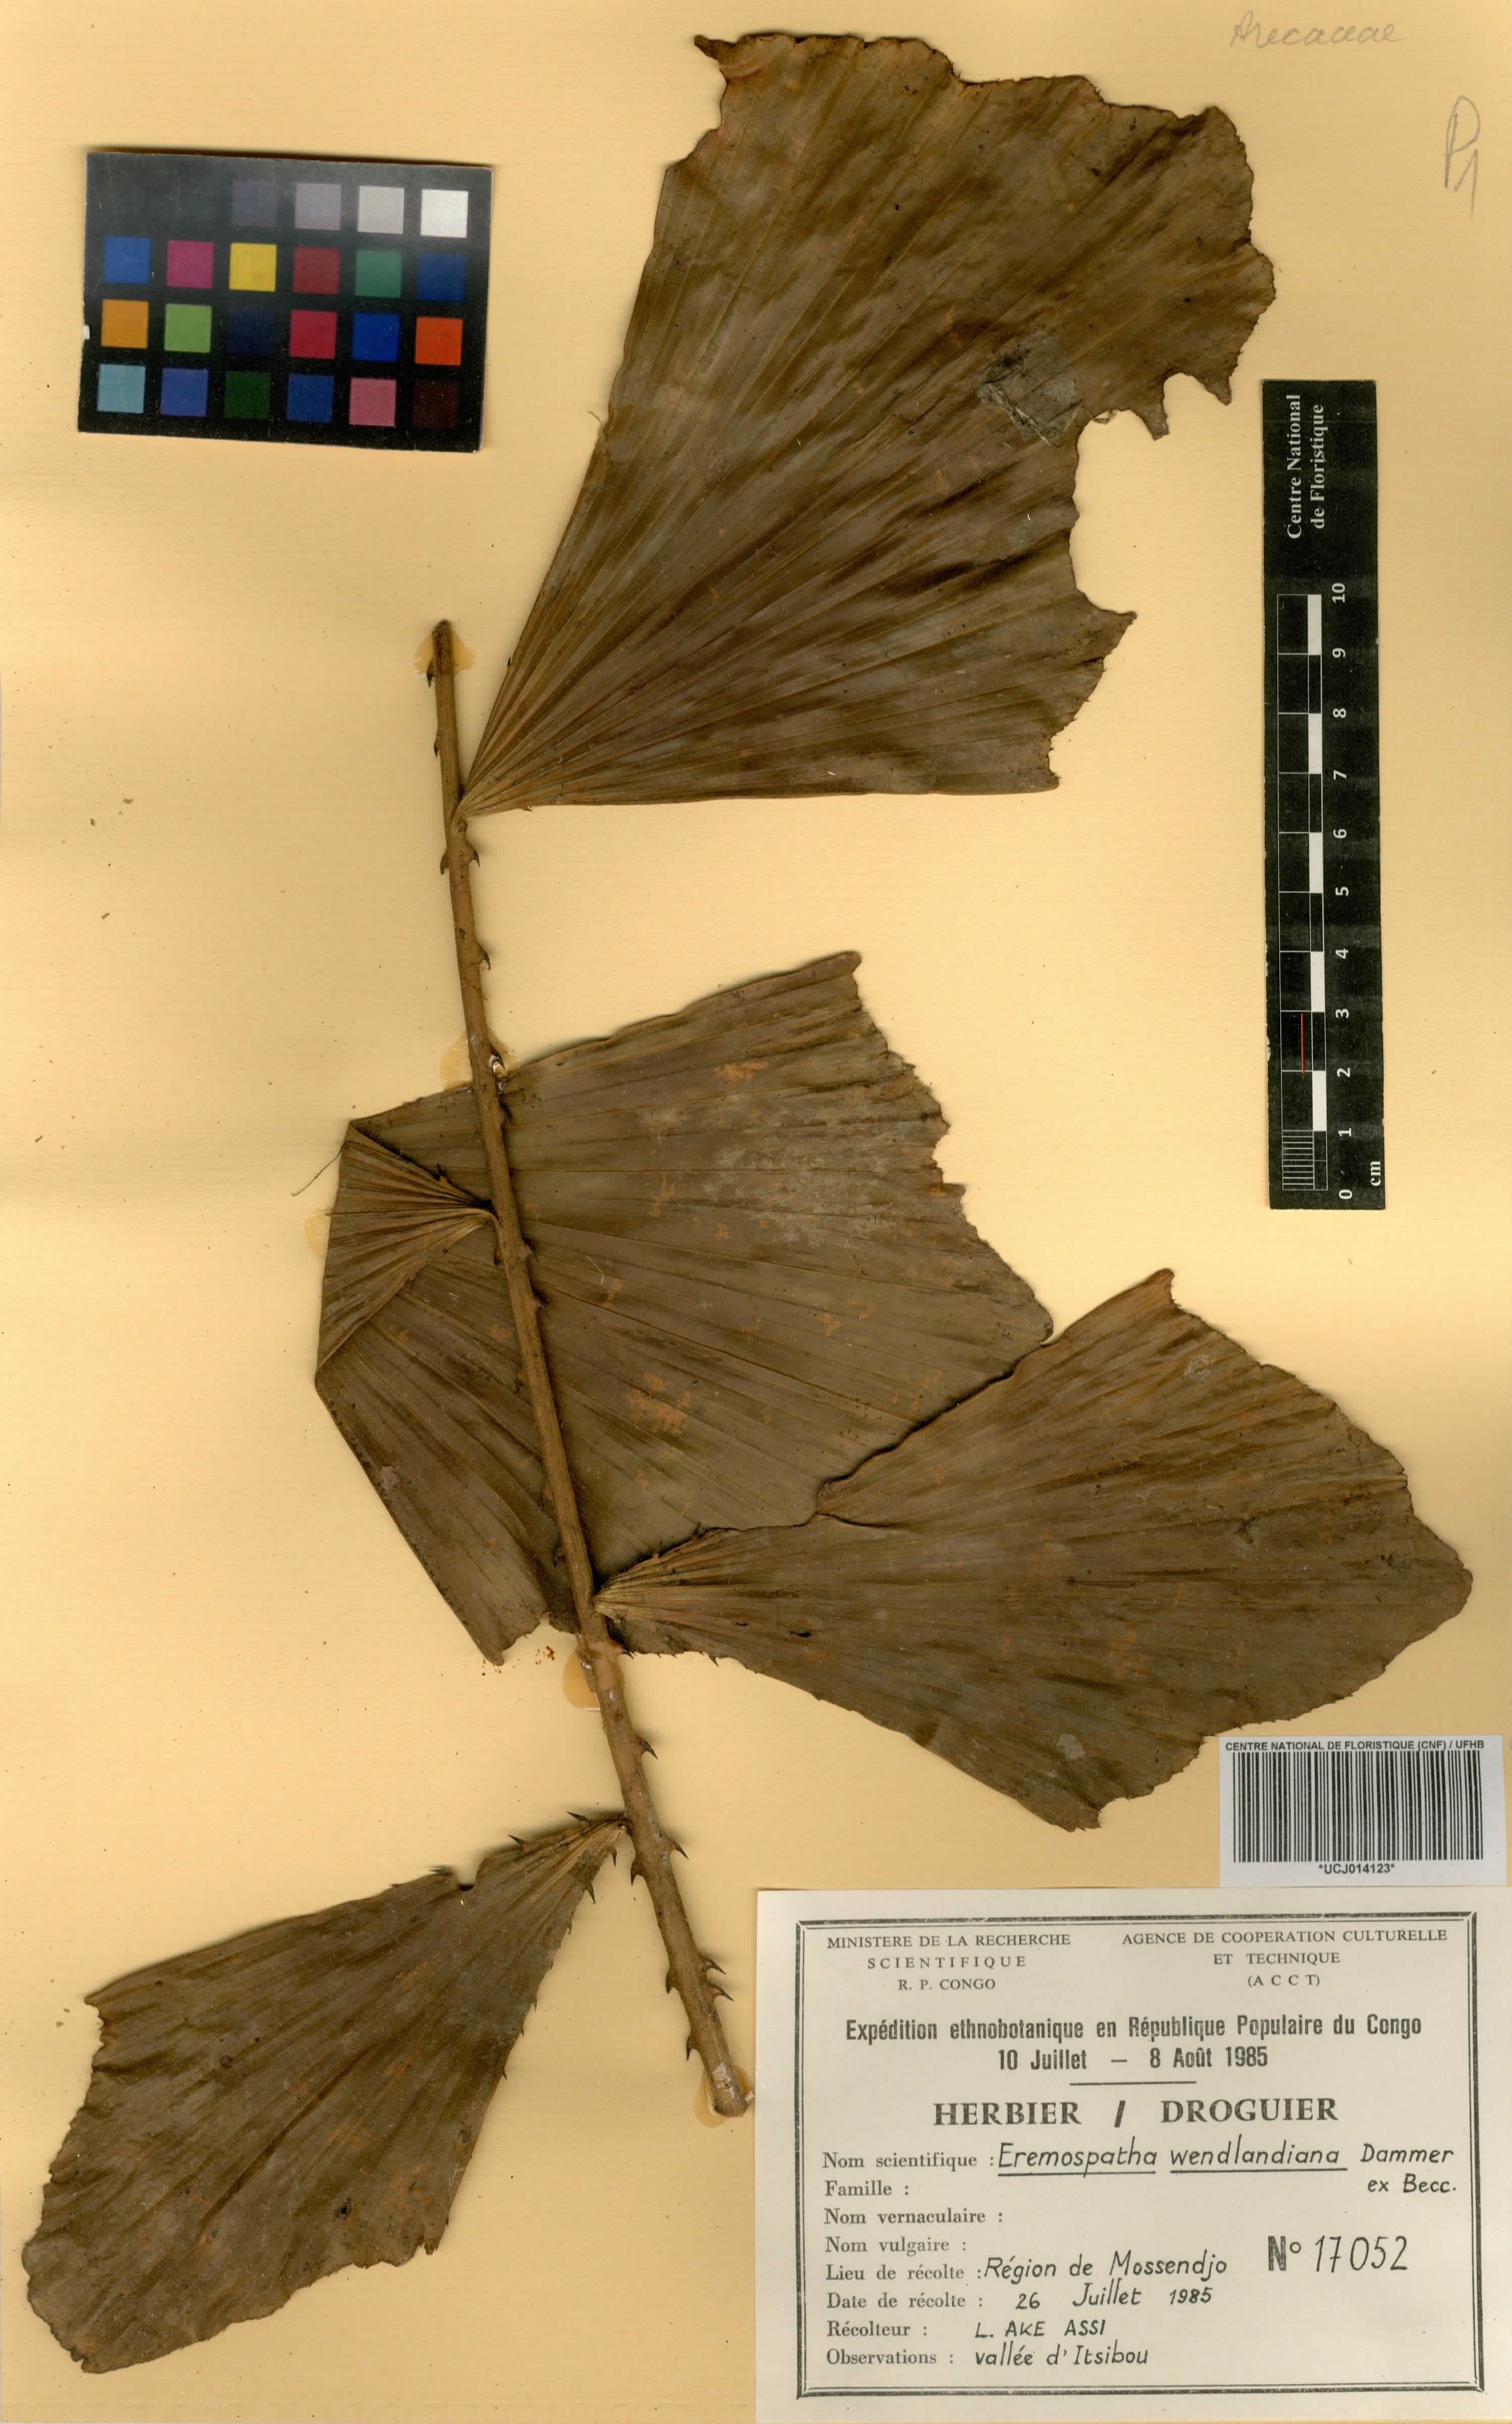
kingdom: Plantae
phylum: Tracheophyta
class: Liliopsida
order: Arecales
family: Arecaceae
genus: Eremospatha
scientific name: Eremospatha wendlandiana
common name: Rattan
